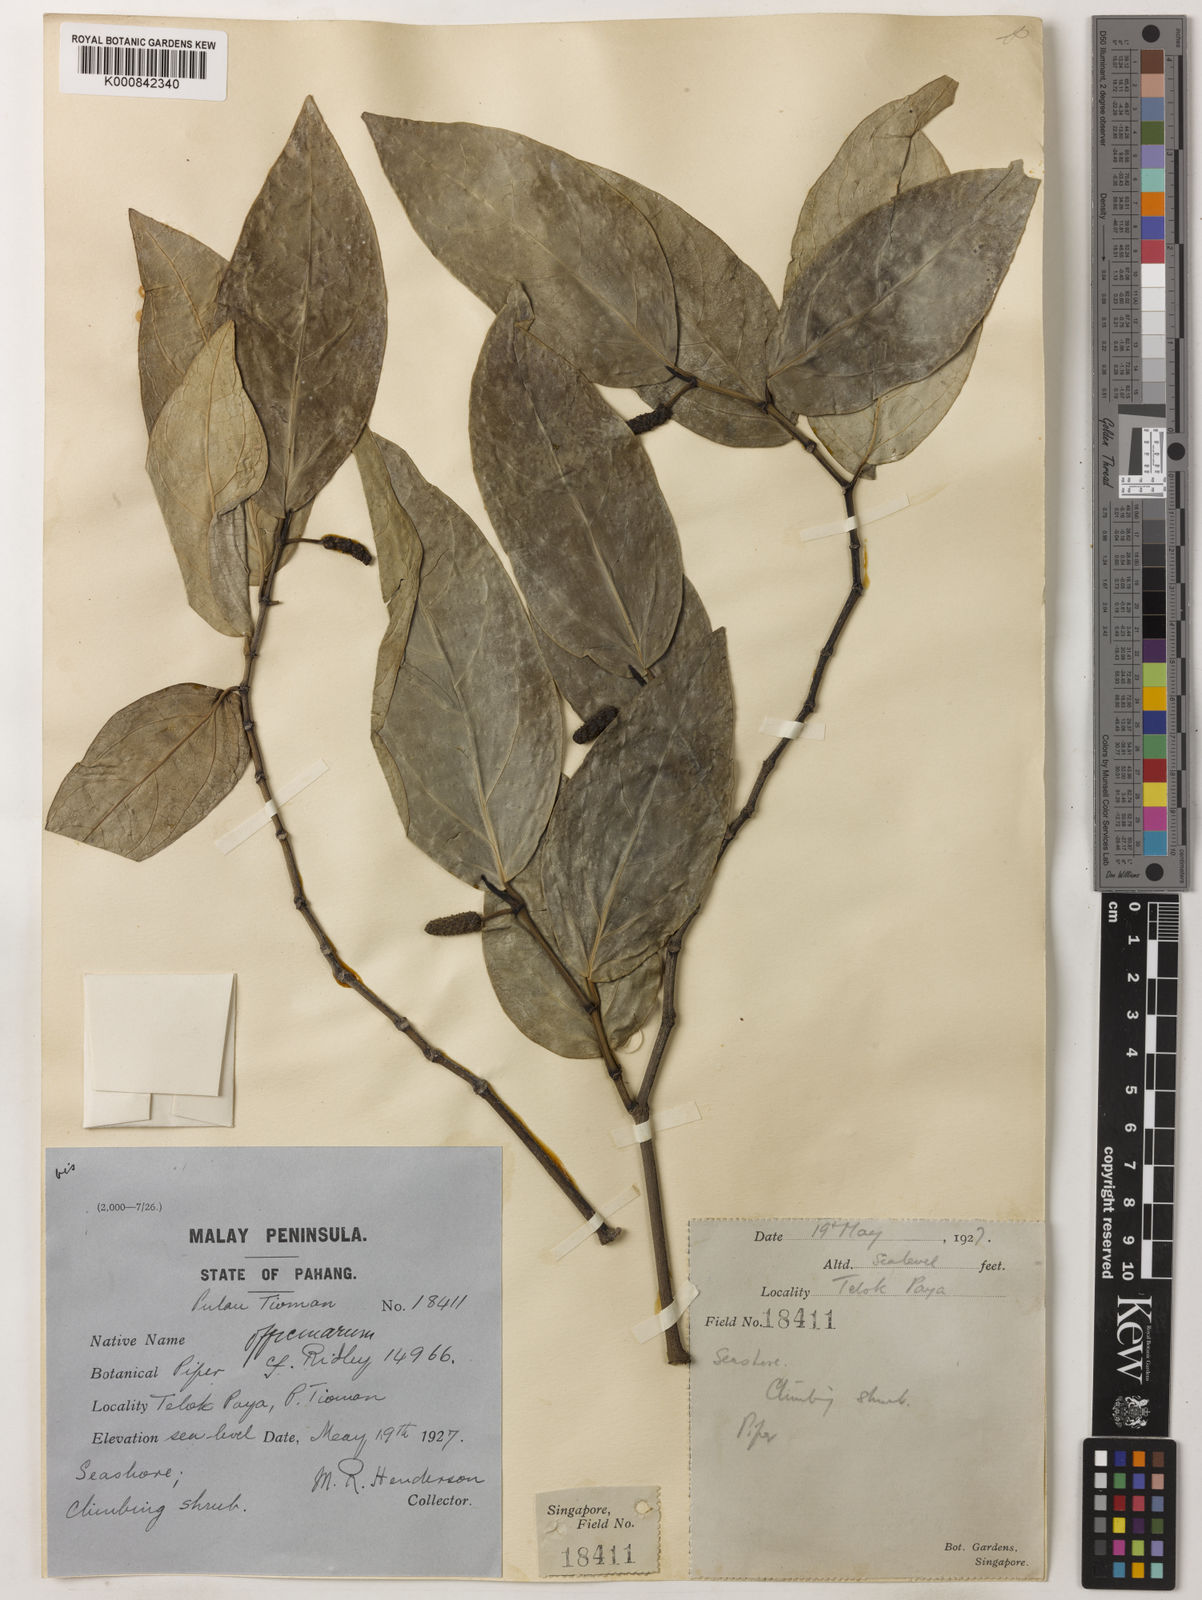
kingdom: Plantae
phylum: Tracheophyta
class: Magnoliopsida
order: Piperales
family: Piperaceae
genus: Piper
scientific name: Piper retrofractum
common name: Javanese long pepper
